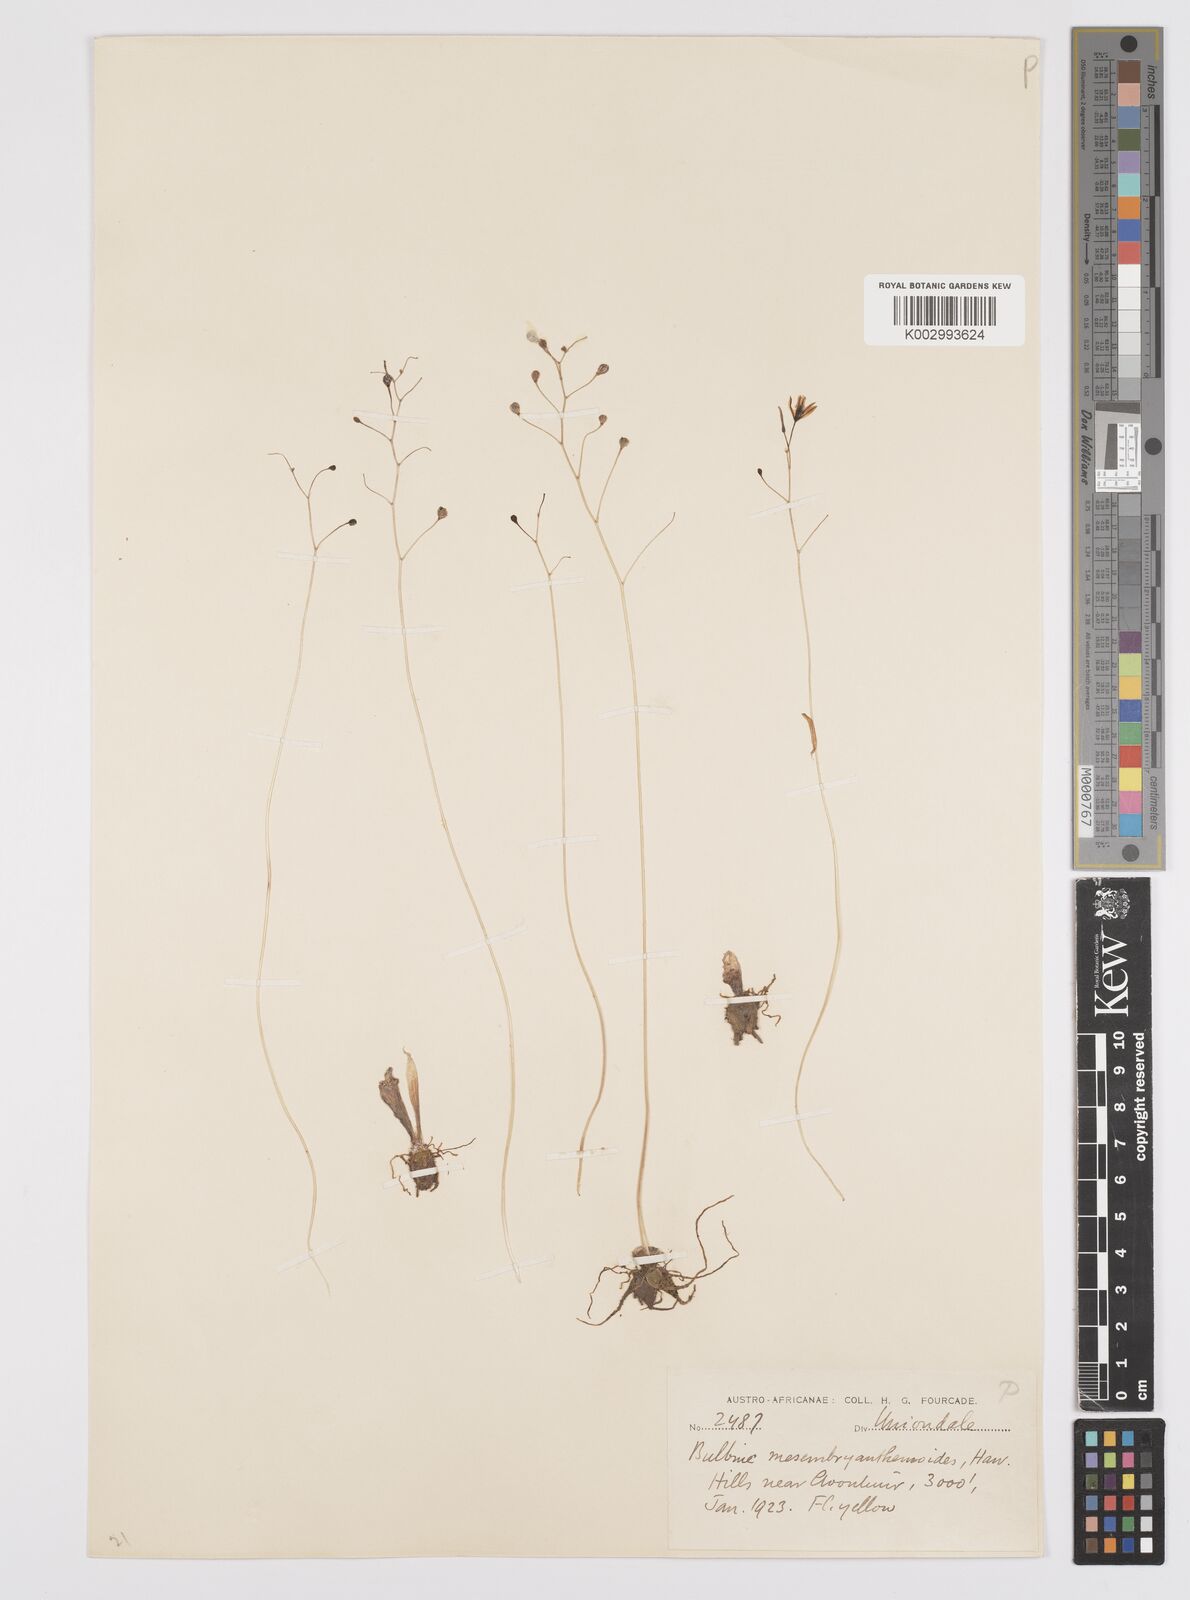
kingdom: Plantae
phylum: Tracheophyta
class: Liliopsida
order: Asparagales
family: Asphodelaceae
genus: Bulbine
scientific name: Bulbine mesembryanthemoides
